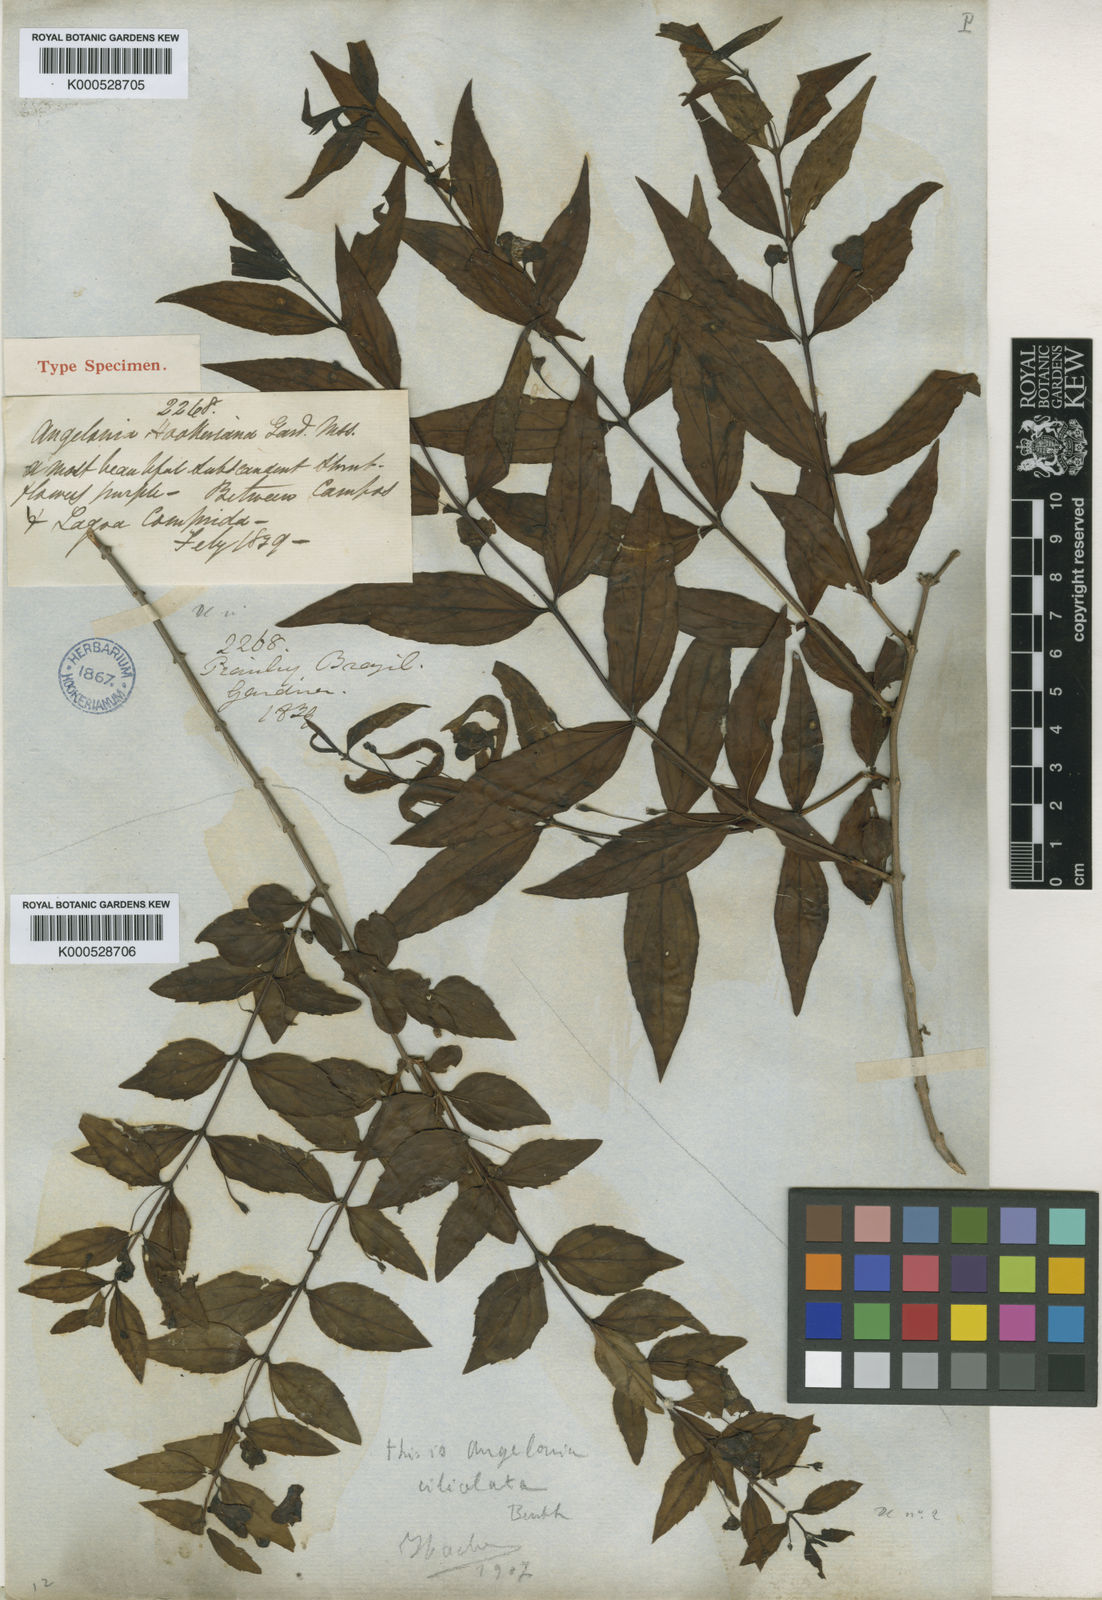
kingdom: Plantae
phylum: Tracheophyta
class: Magnoliopsida
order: Lamiales
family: Plantaginaceae
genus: Angelonia
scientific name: Angelonia campestris
